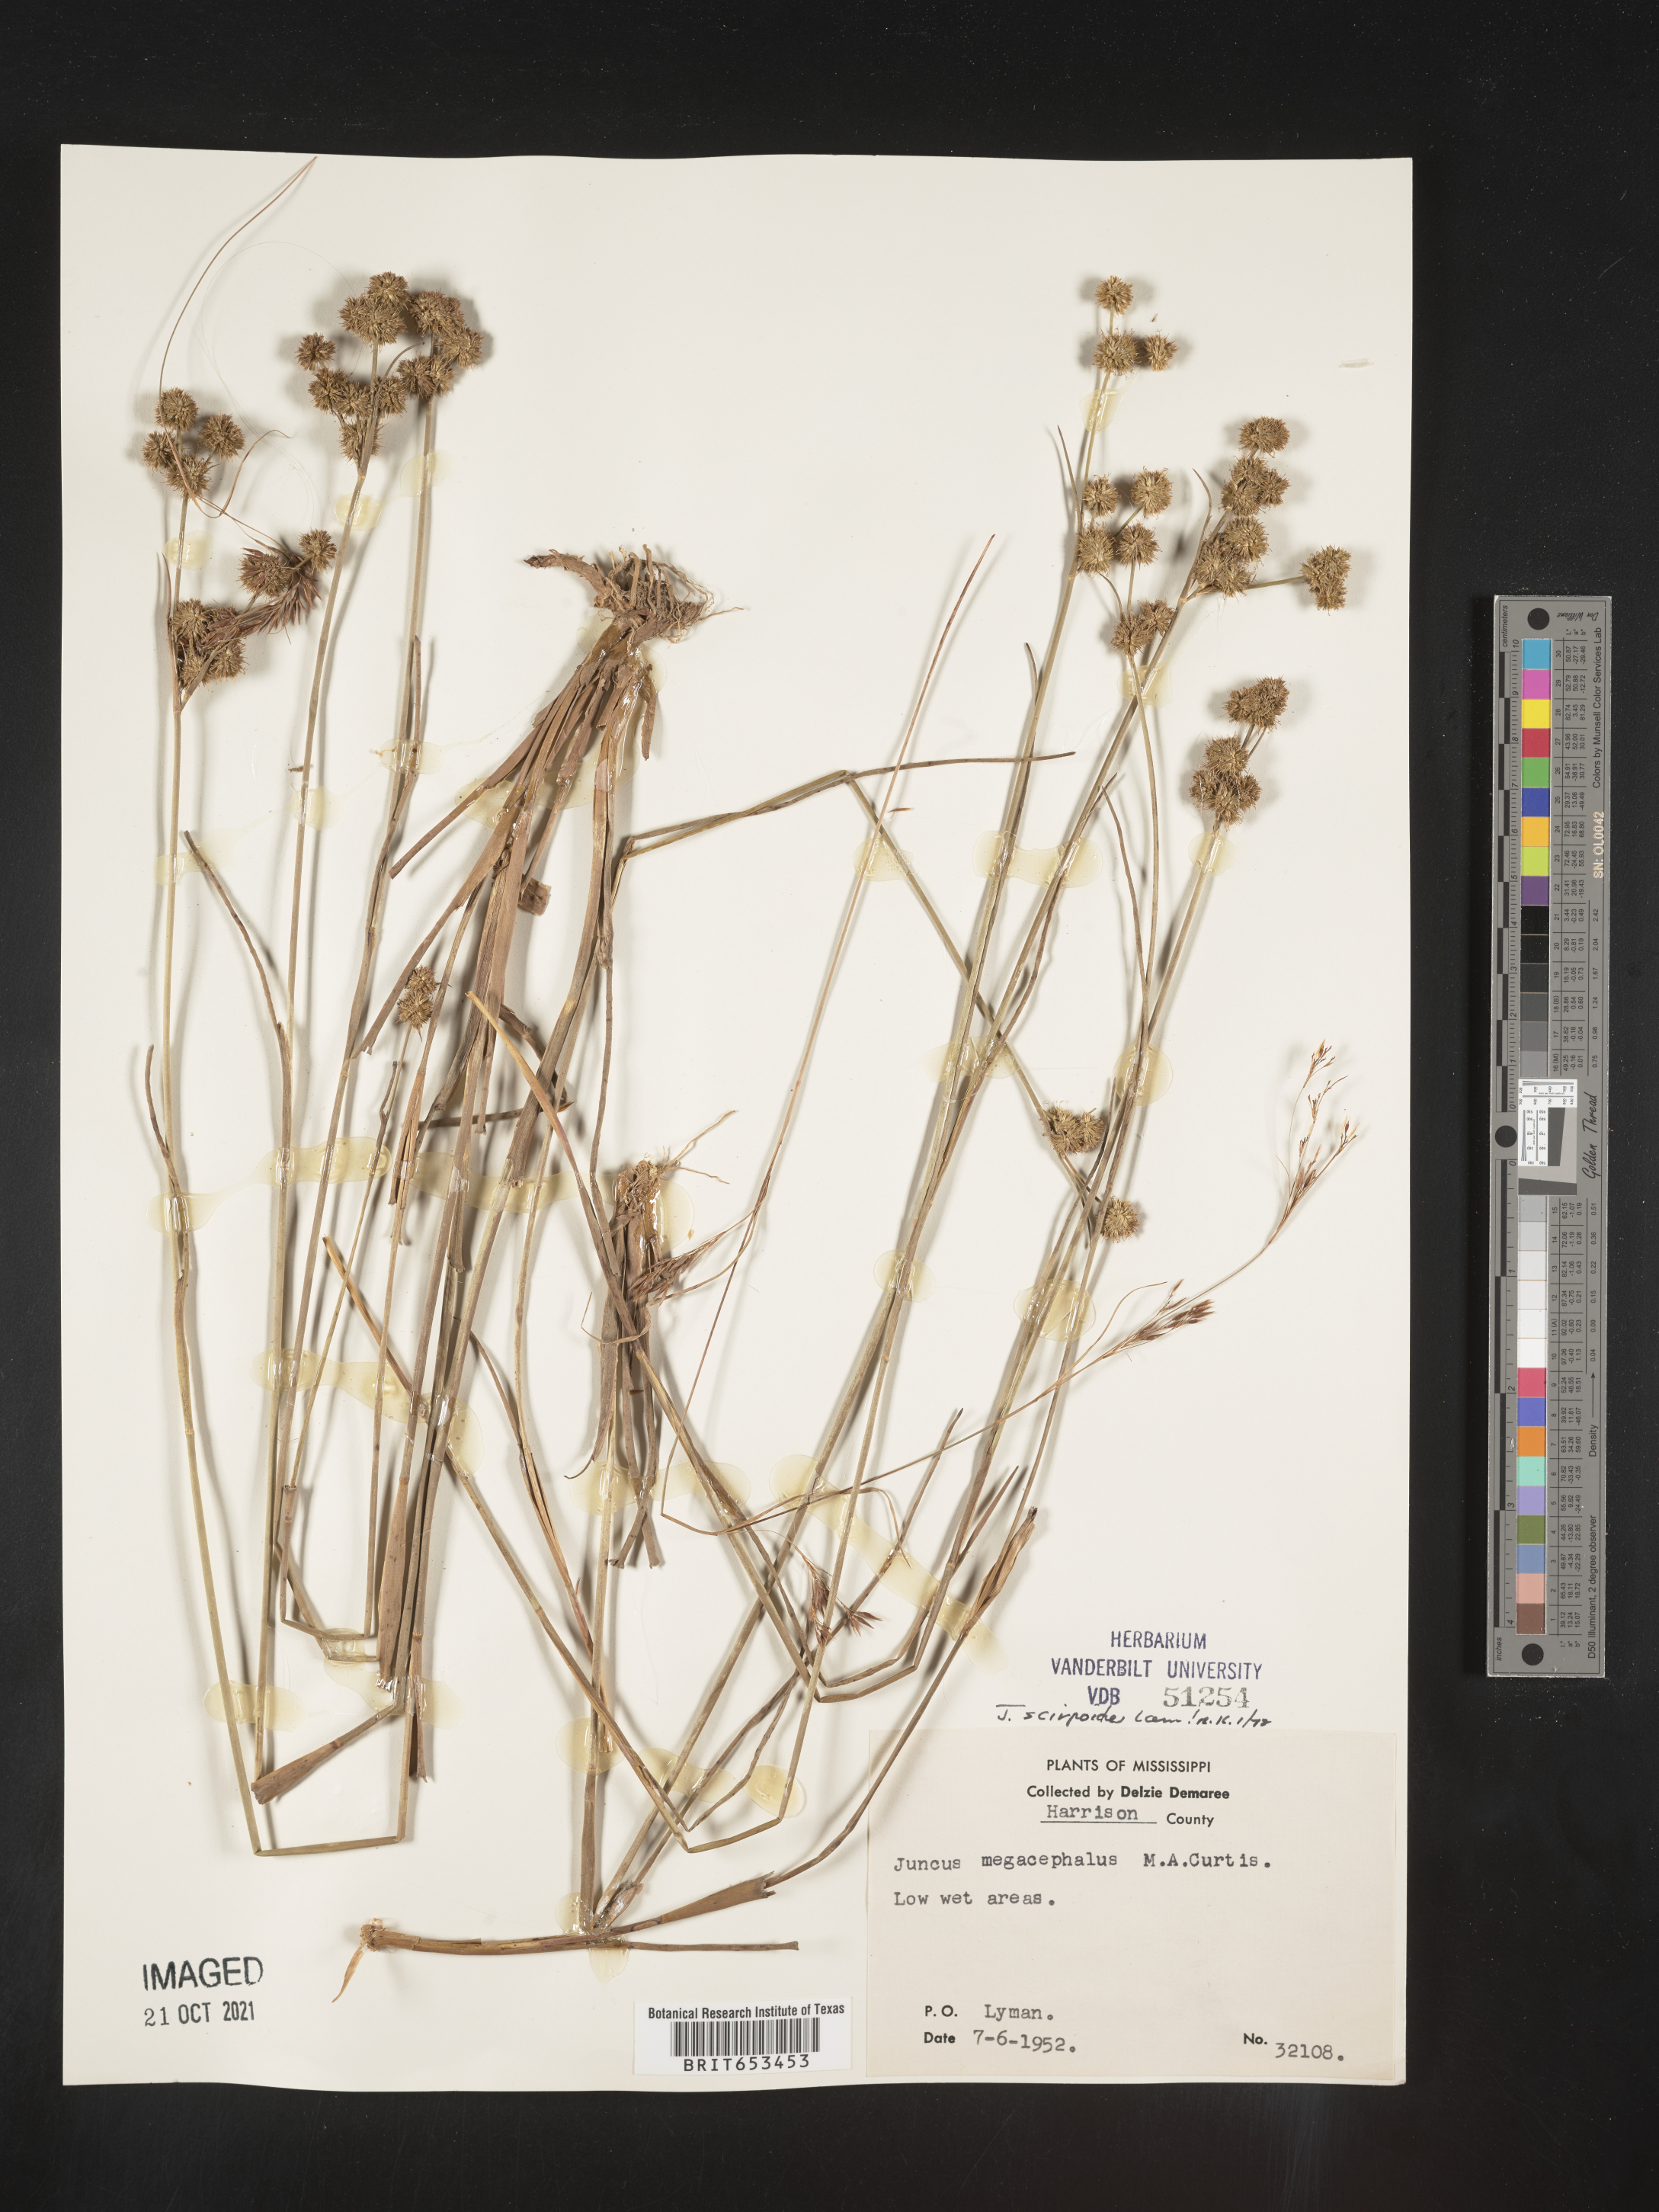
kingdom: Plantae
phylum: Tracheophyta
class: Liliopsida
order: Poales
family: Juncaceae
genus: Juncus
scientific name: Juncus scirpoides
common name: Needlepod rush
